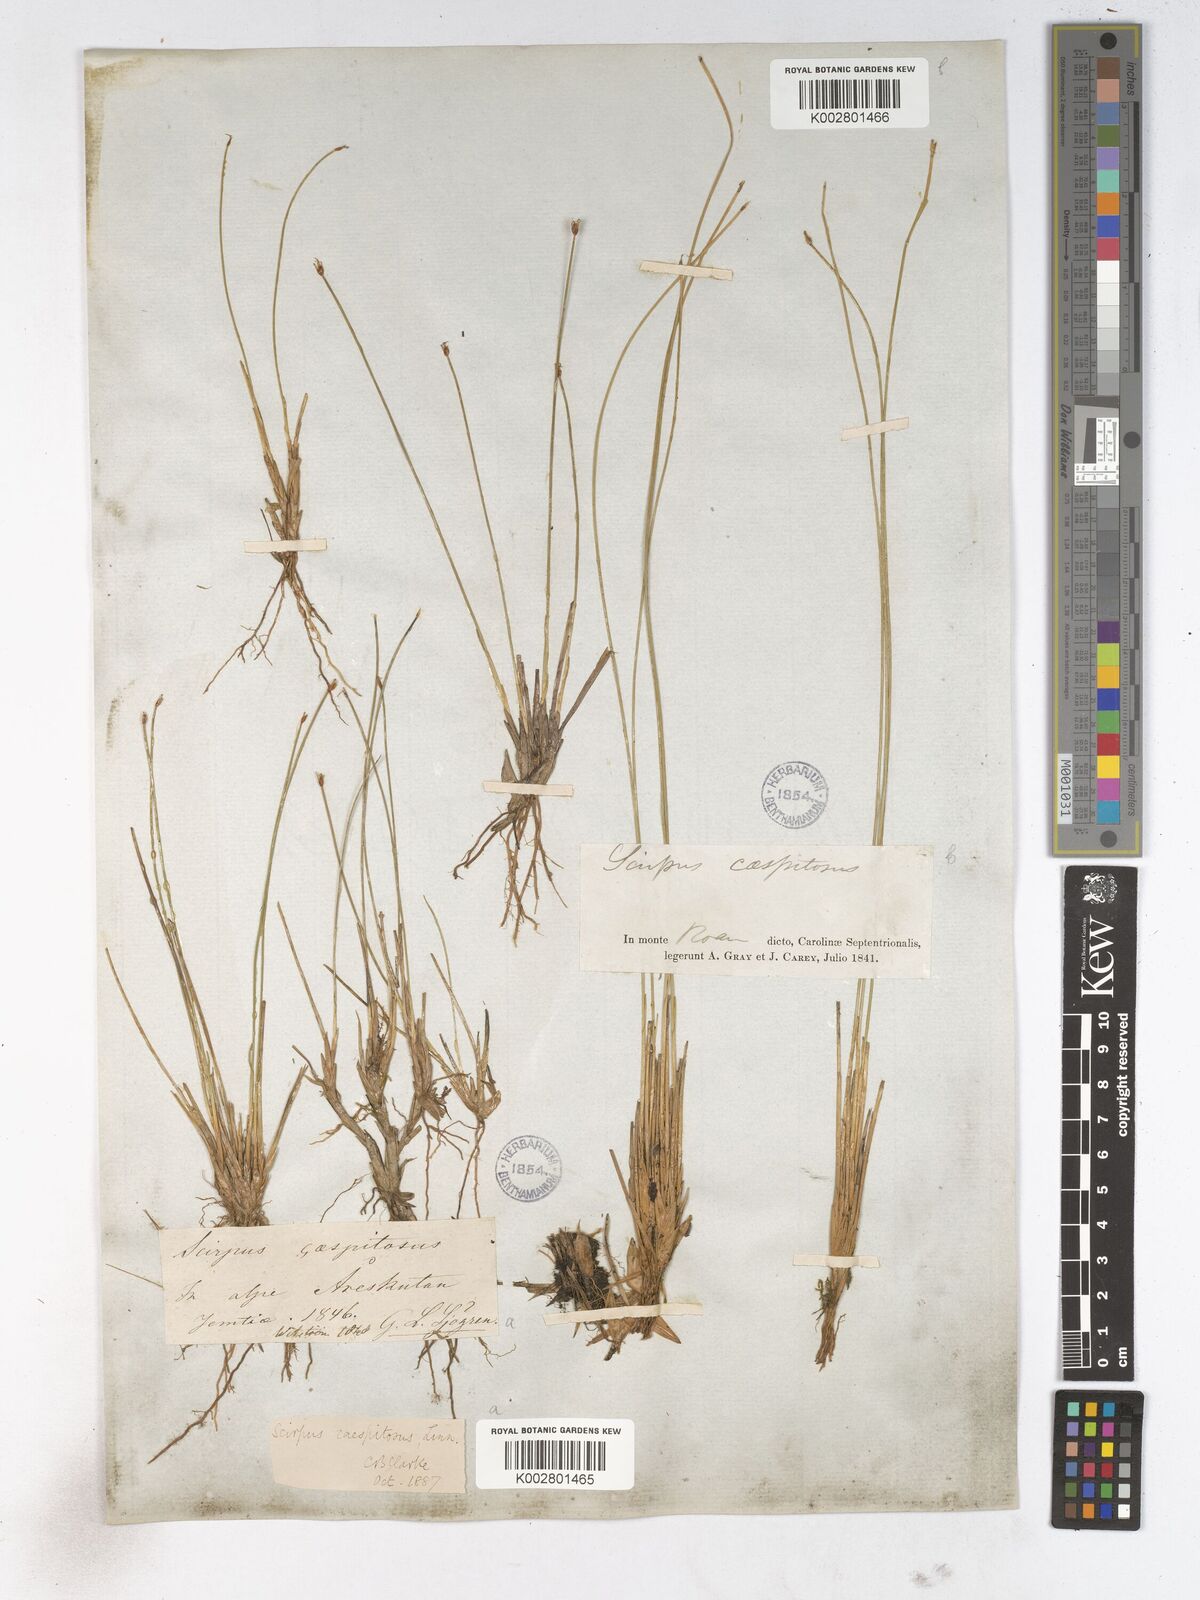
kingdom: Plantae
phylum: Tracheophyta
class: Liliopsida
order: Poales
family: Cyperaceae
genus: Trichophorum
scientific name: Trichophorum cespitosum
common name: Cespitose bulrush
